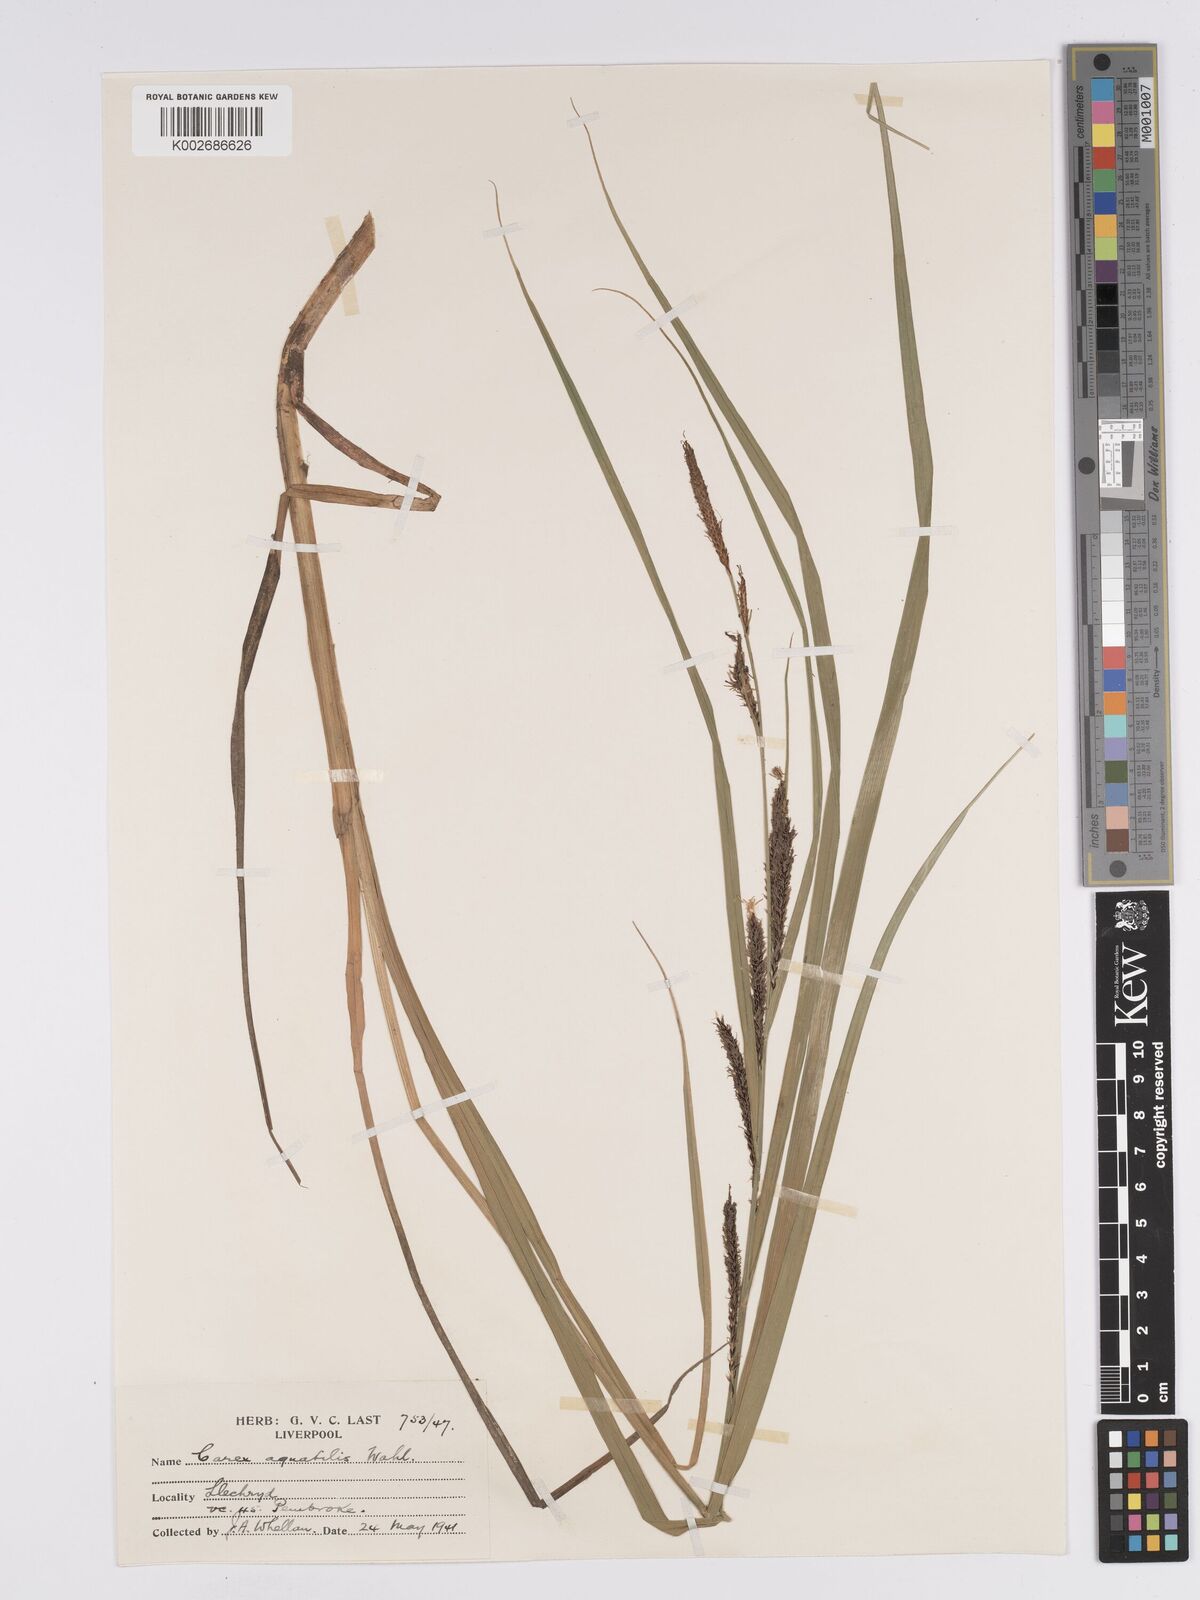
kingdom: Plantae
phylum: Tracheophyta
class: Liliopsida
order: Poales
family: Cyperaceae
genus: Carex
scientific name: Carex aquatilis
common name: Water sedge
